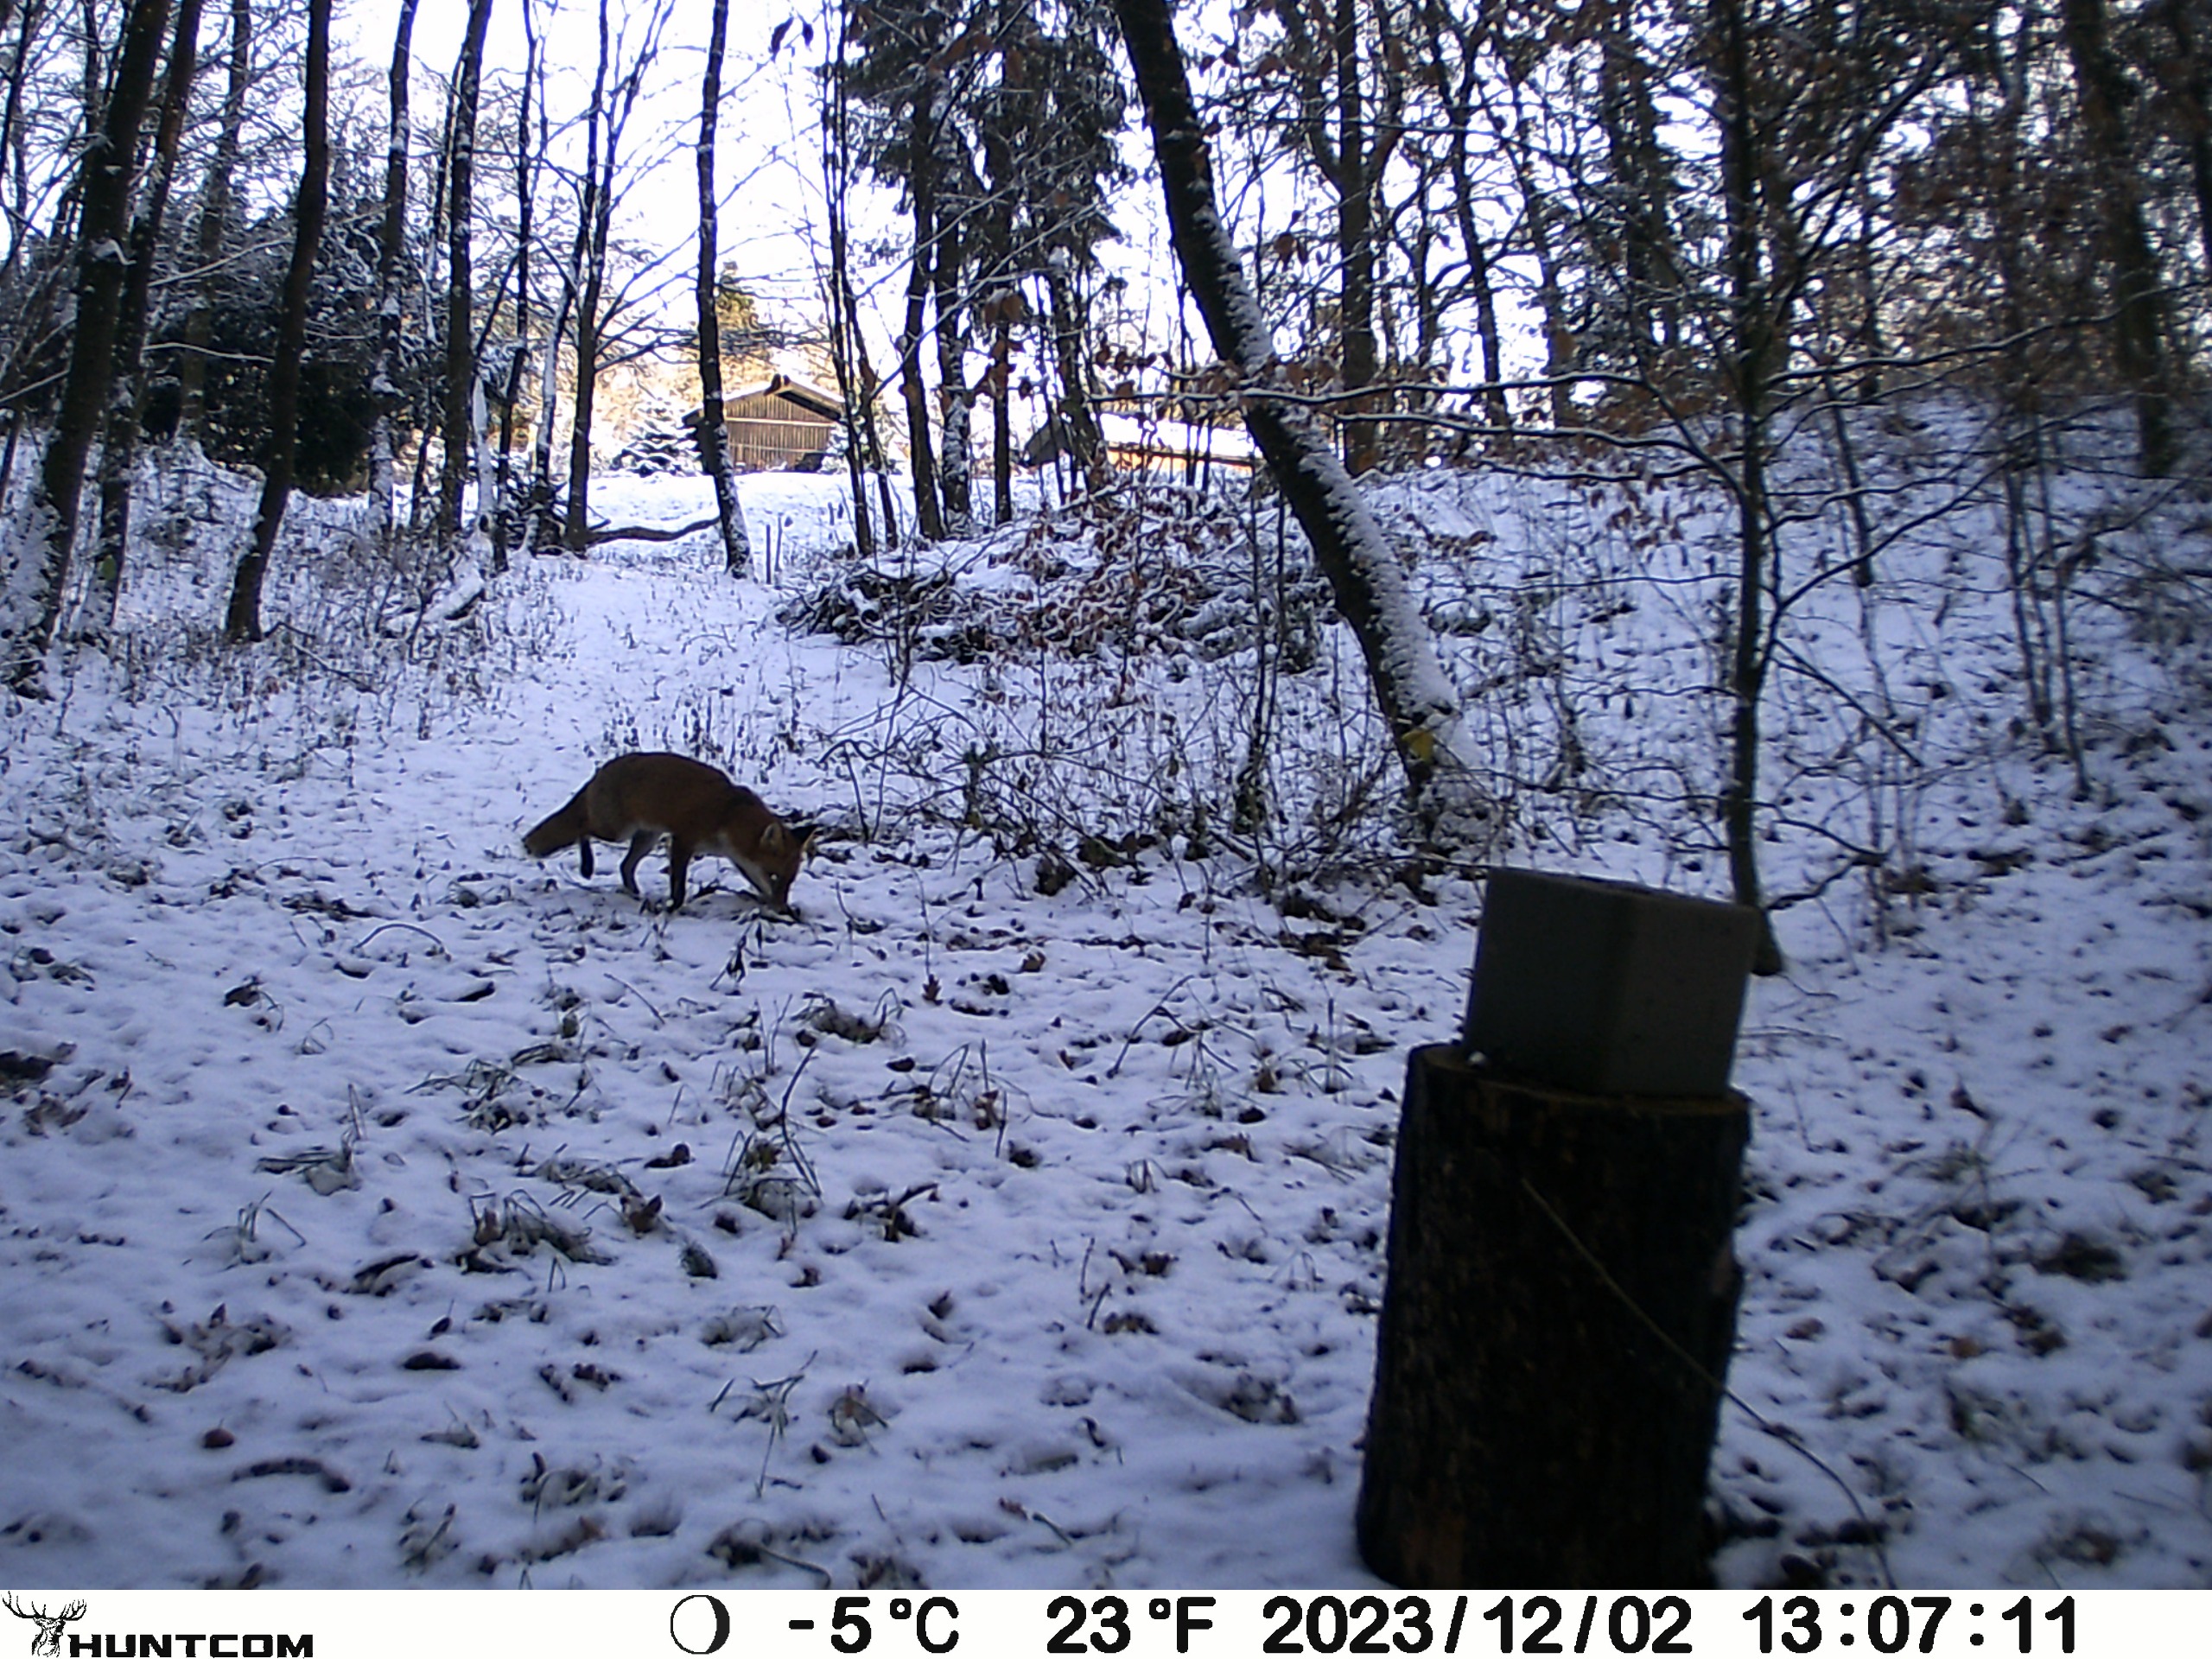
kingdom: Animalia
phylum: Chordata
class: Mammalia
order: Carnivora
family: Canidae
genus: Vulpes
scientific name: Vulpes vulpes
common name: Ræv
